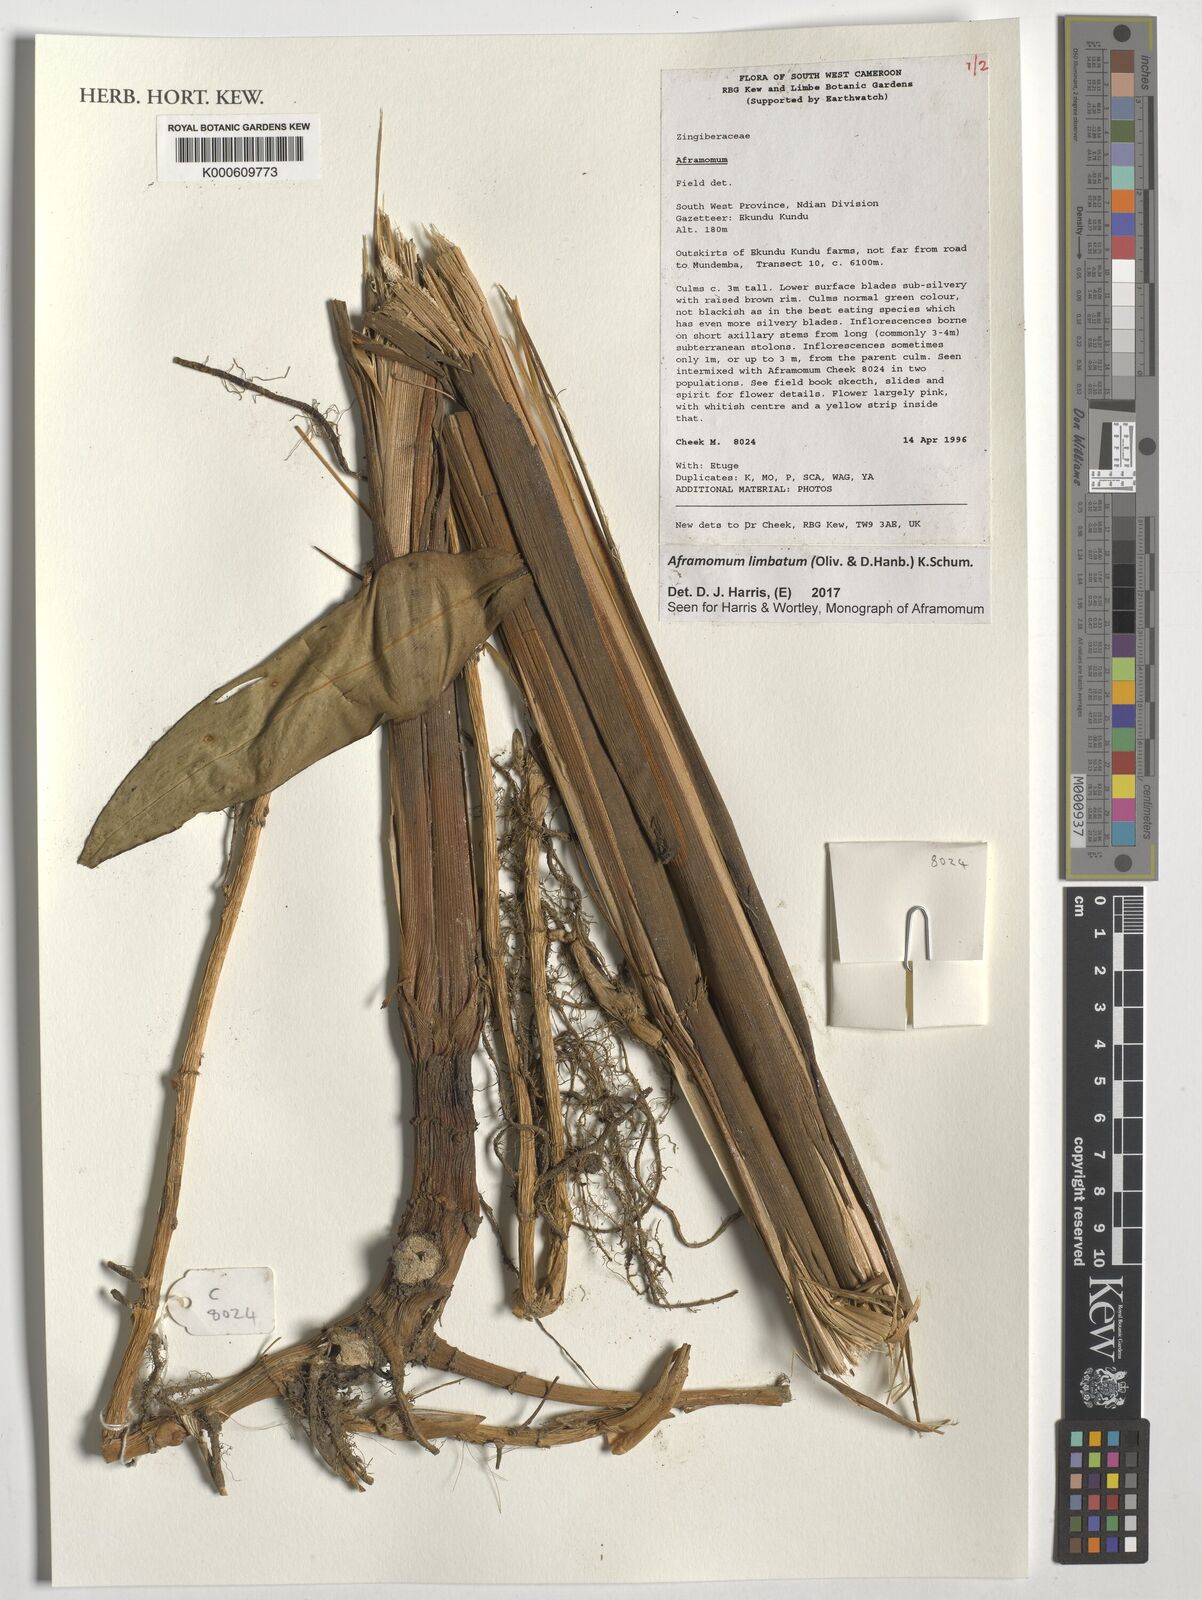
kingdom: Plantae
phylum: Tracheophyta
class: Liliopsida
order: Zingiberales
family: Zingiberaceae
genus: Aframomum
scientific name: Aframomum limbatum
